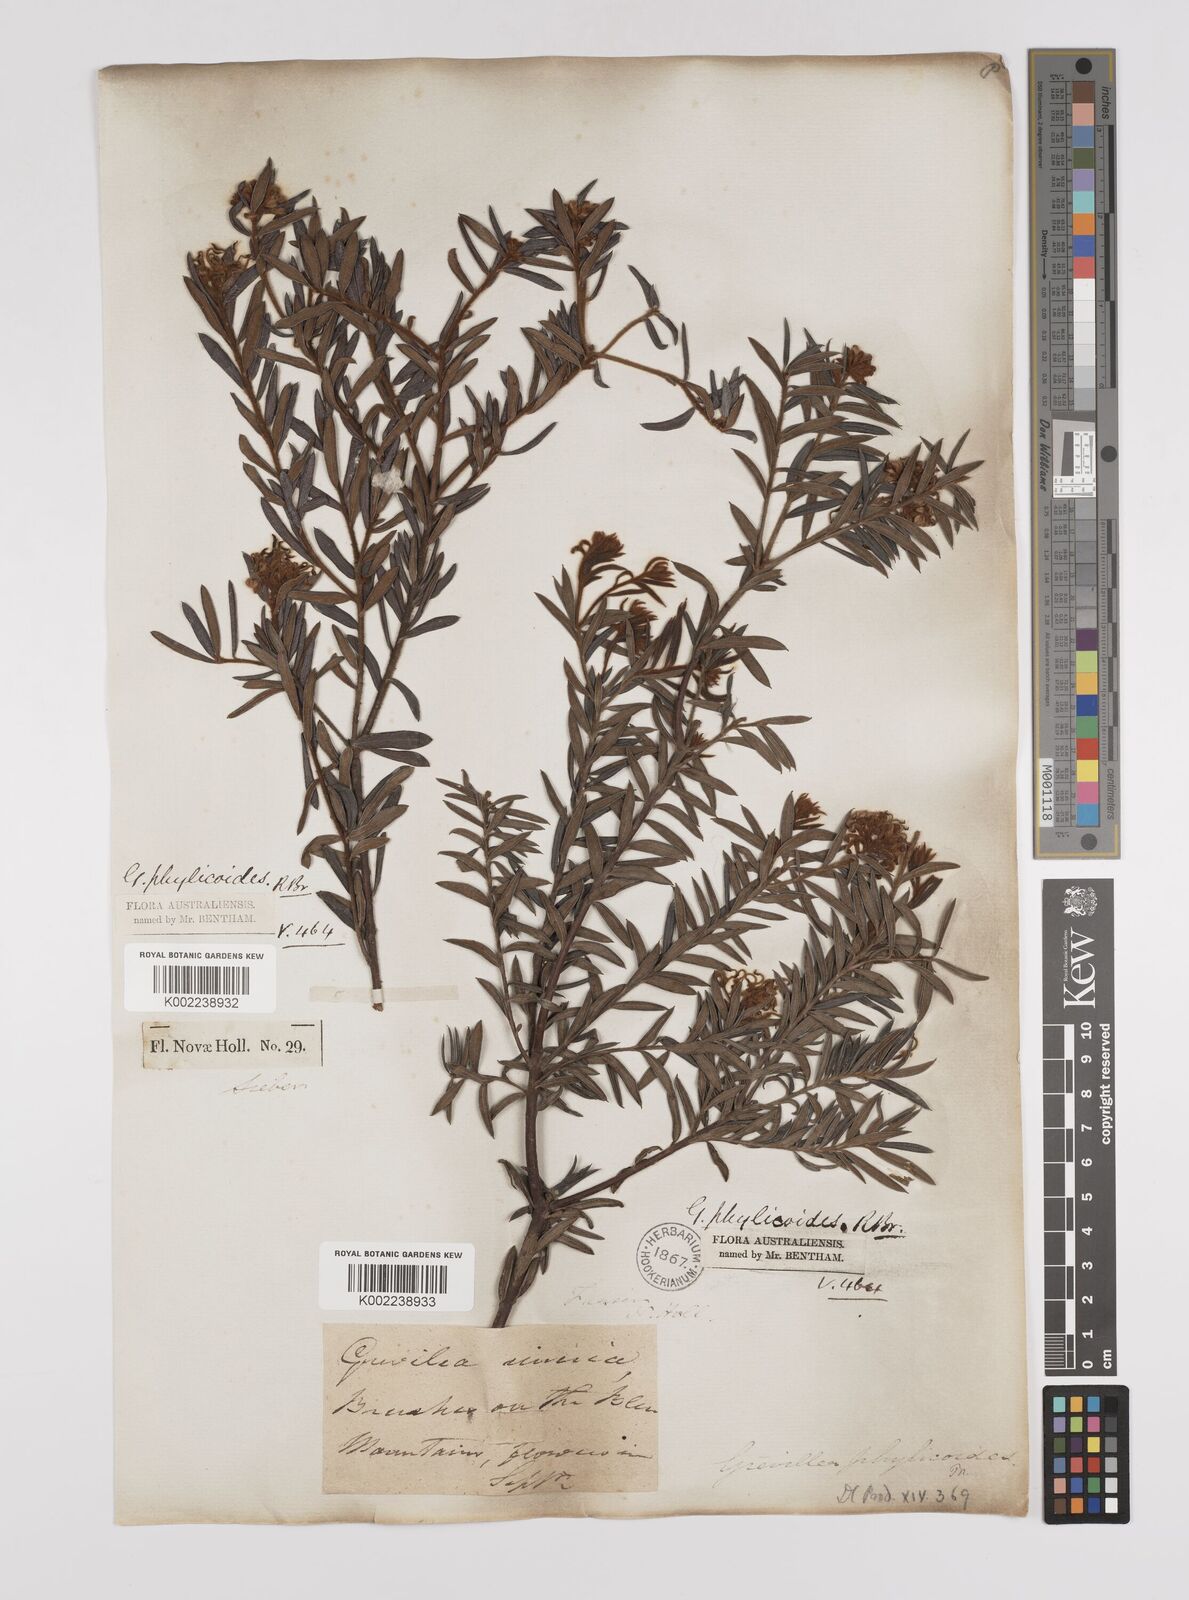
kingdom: Plantae
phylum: Tracheophyta
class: Magnoliopsida
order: Proteales
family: Proteaceae
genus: Grevillea
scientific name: Grevillea phylicoides
